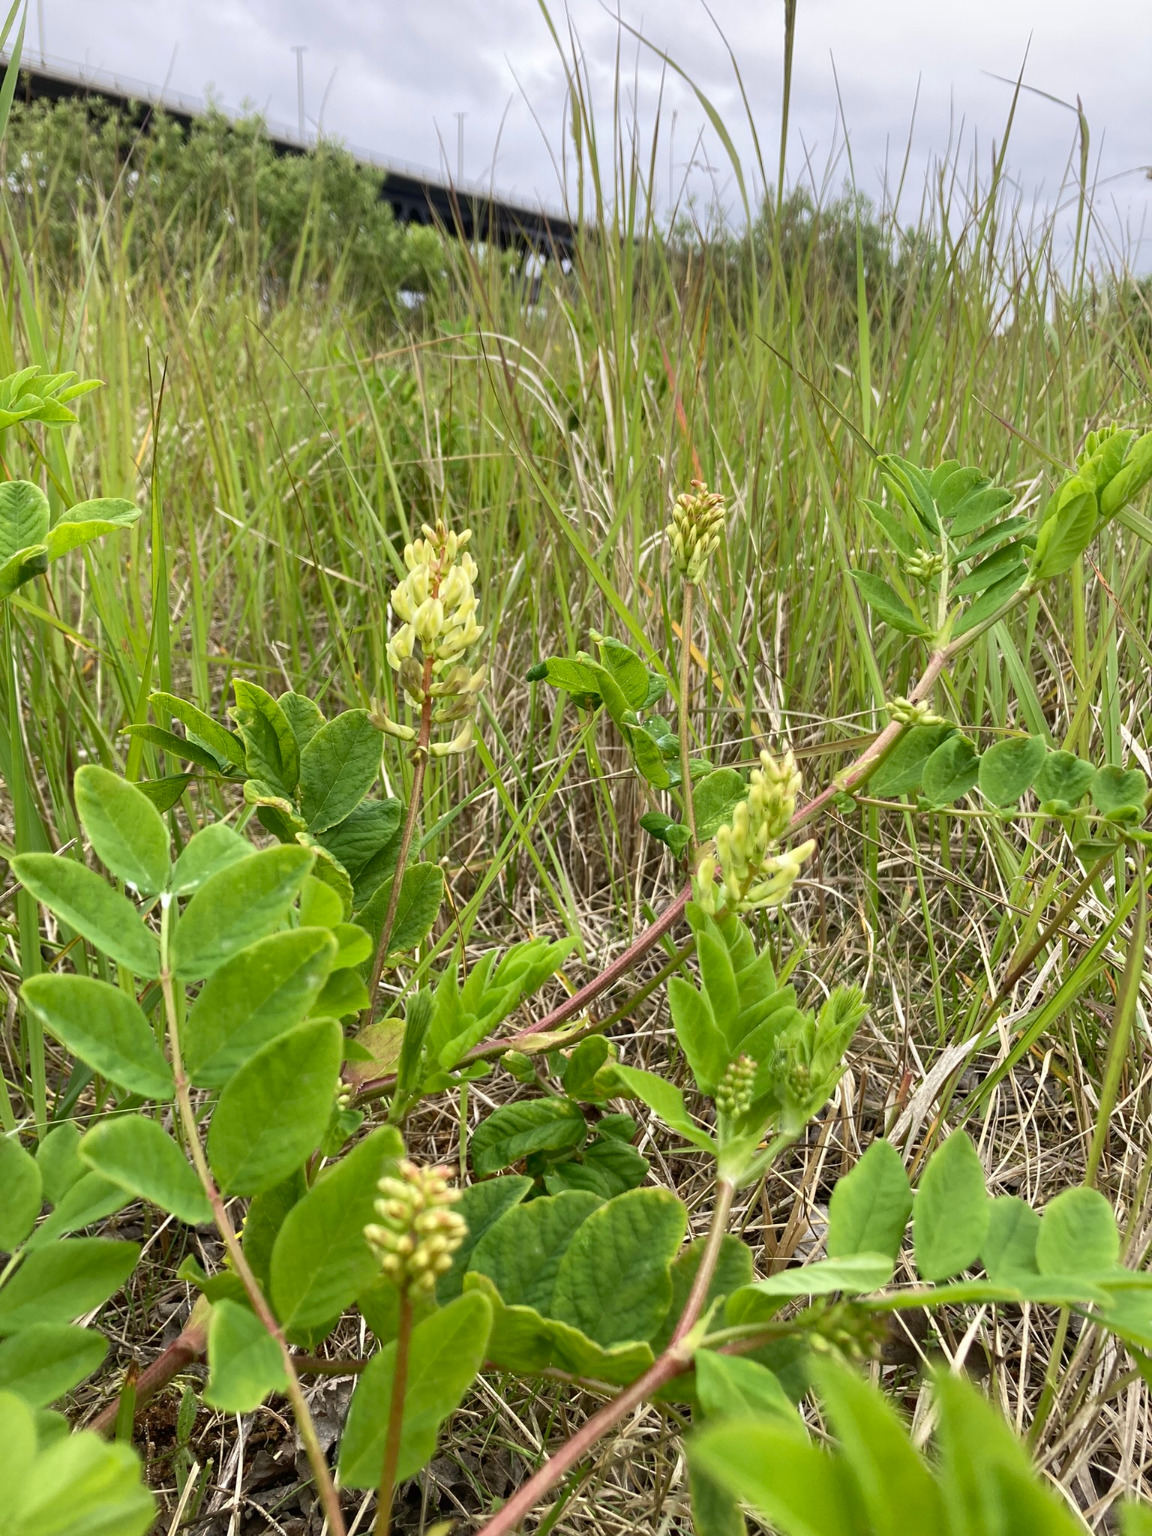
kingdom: Plantae
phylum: Tracheophyta
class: Magnoliopsida
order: Fabales
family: Fabaceae
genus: Astragalus
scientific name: Astragalus glycyphyllos
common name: Sød astragel
